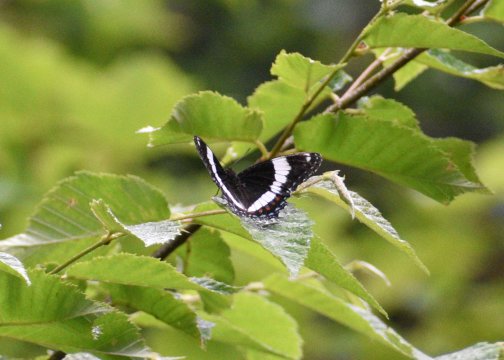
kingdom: Animalia
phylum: Arthropoda
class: Insecta
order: Lepidoptera
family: Nymphalidae
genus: Limenitis
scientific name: Limenitis arthemis
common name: Red-spotted Admiral
